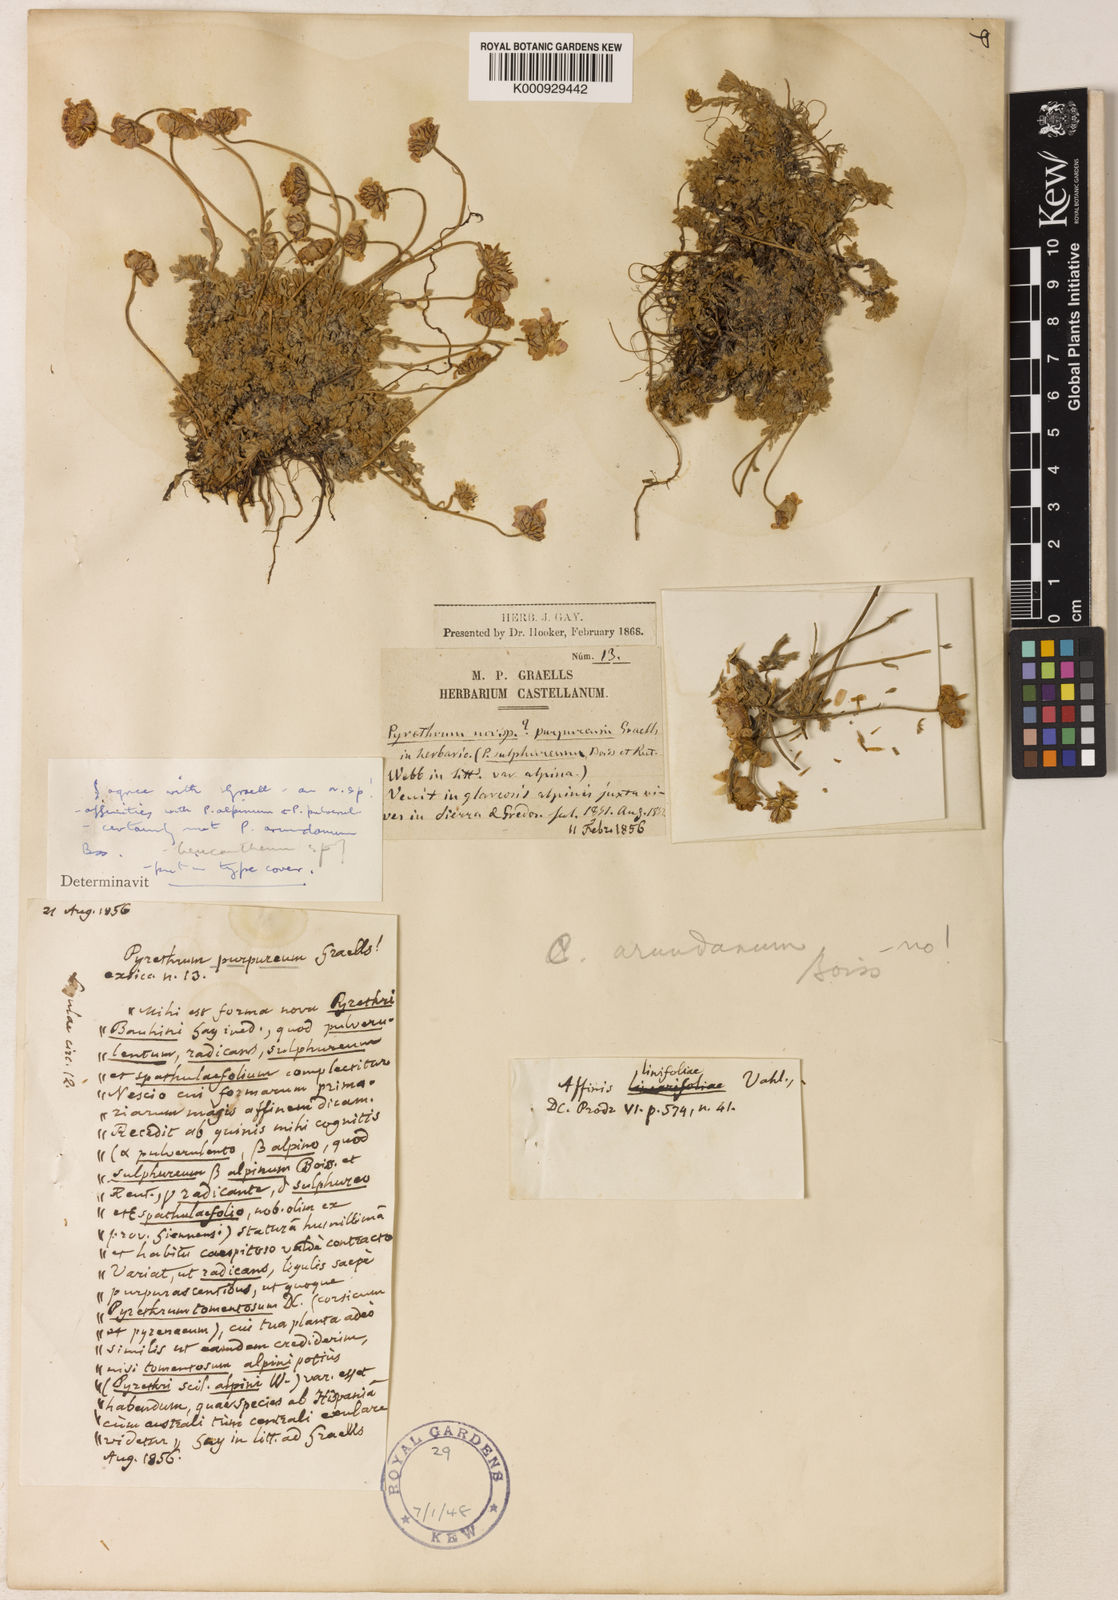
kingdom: Plantae
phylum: Tracheophyta
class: Magnoliopsida
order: Asterales
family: Asteraceae
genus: Leucanthemopsis
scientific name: Leucanthemopsis pulverulenta
